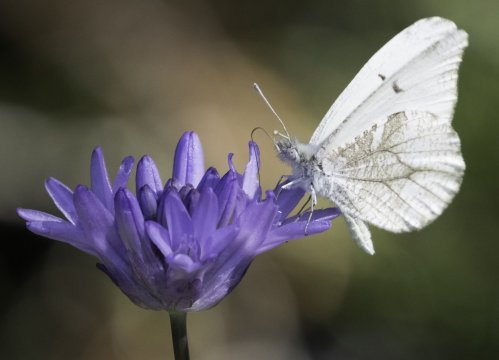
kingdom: Animalia
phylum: Arthropoda
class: Insecta
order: Lepidoptera
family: Pieridae
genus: Anthocharis
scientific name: Anthocharis lanceolata
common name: Gray Marble
